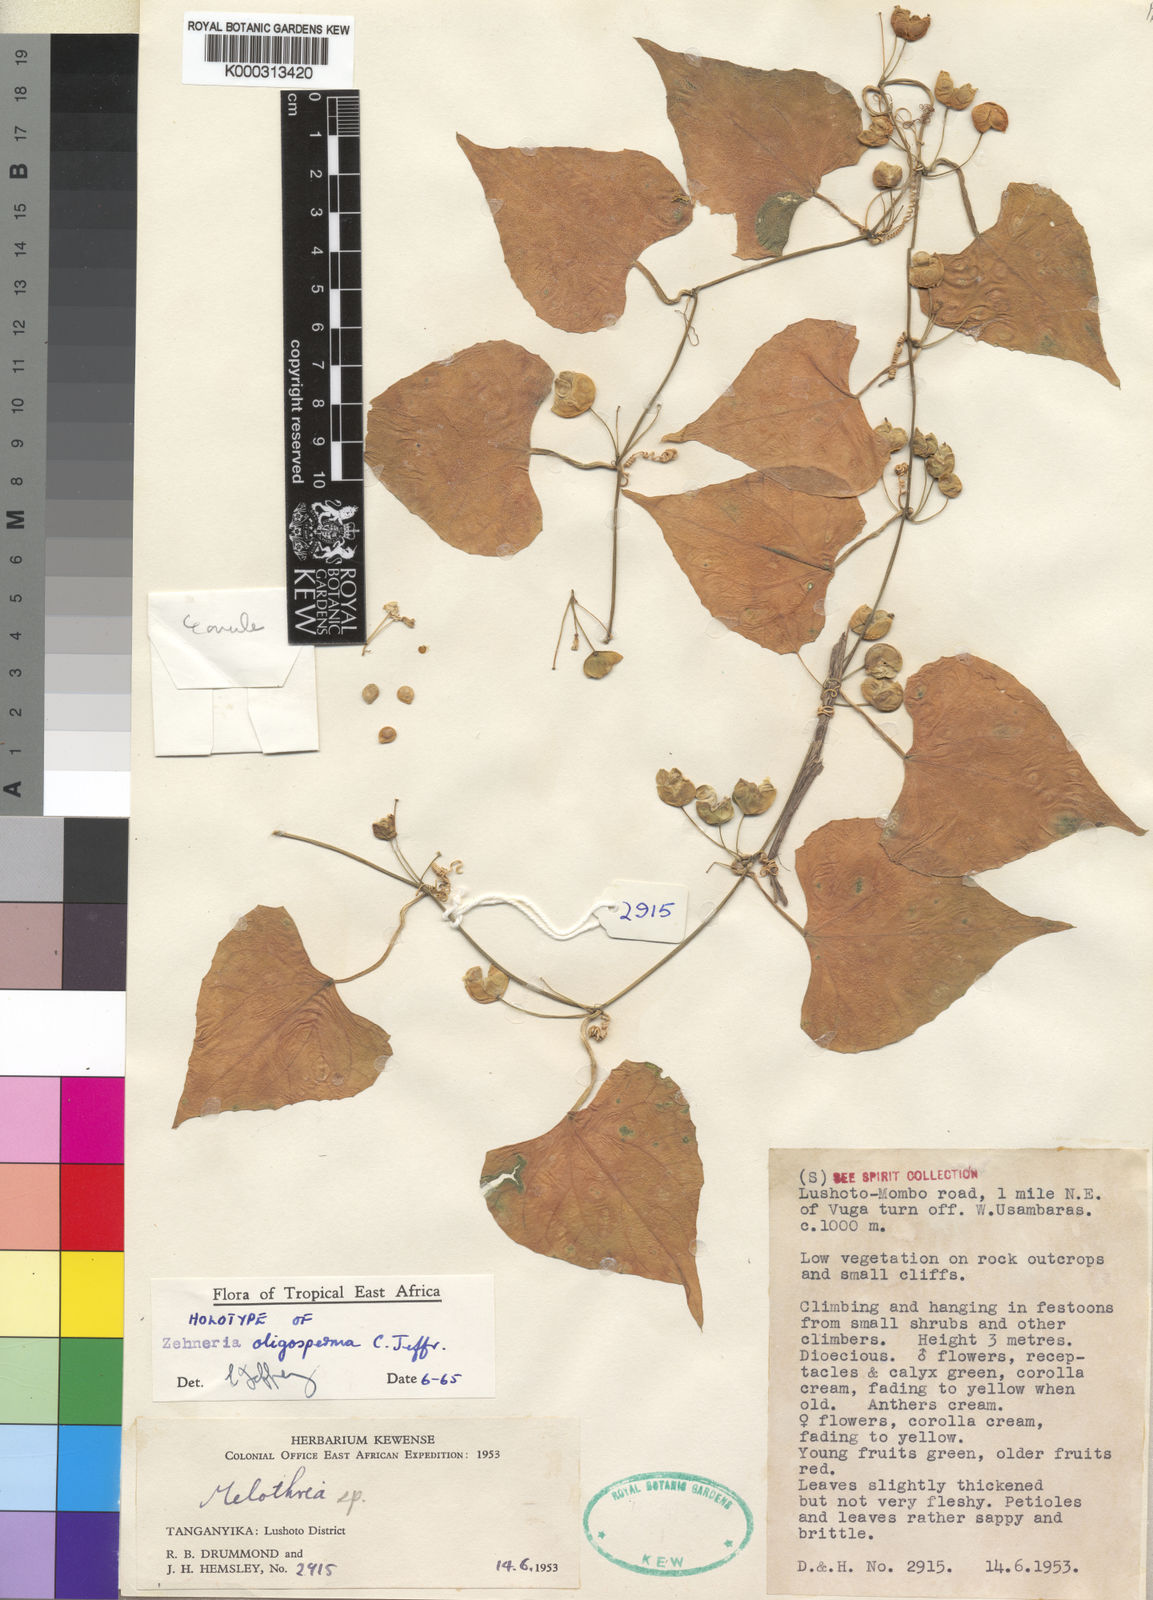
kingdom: Plantae
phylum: Tracheophyta
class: Magnoliopsida
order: Cucurbitales
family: Cucurbitaceae
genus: Zehneria
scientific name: Zehneria oligosperma
